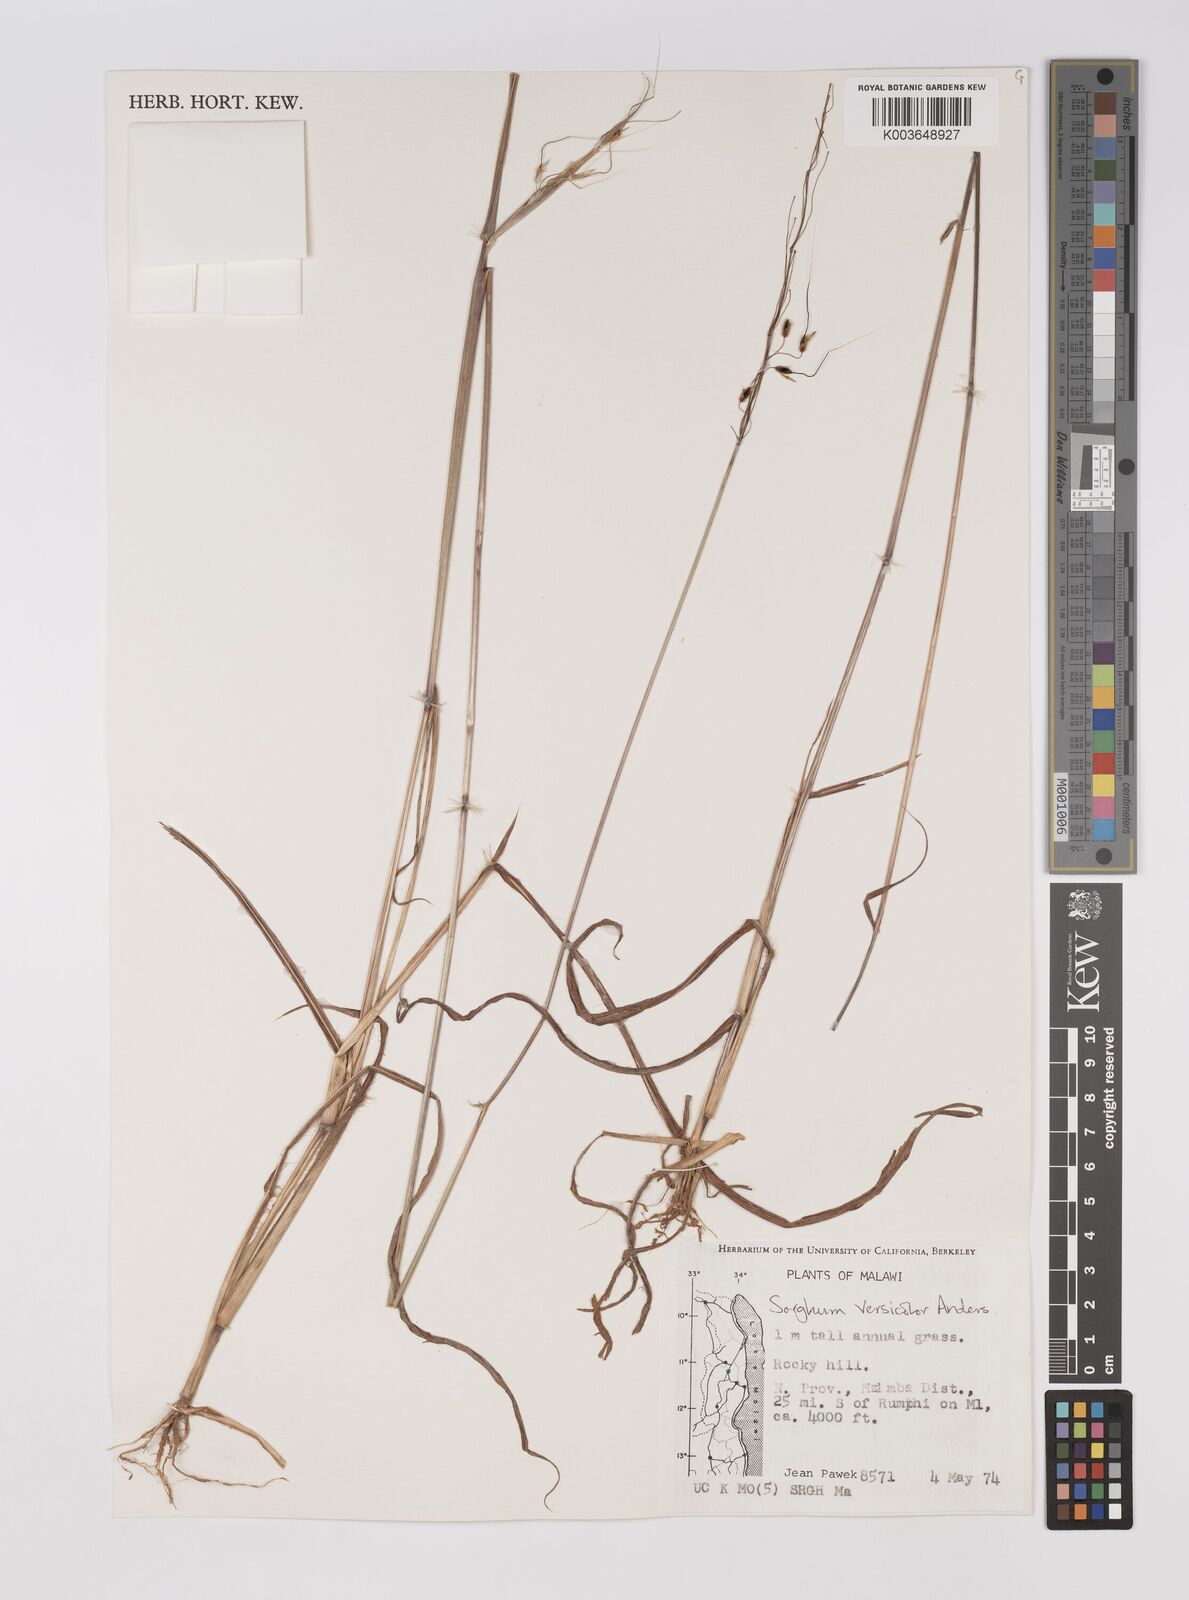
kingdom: Plantae
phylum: Tracheophyta
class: Liliopsida
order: Poales
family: Poaceae
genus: Sarga
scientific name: Sarga versicolor
